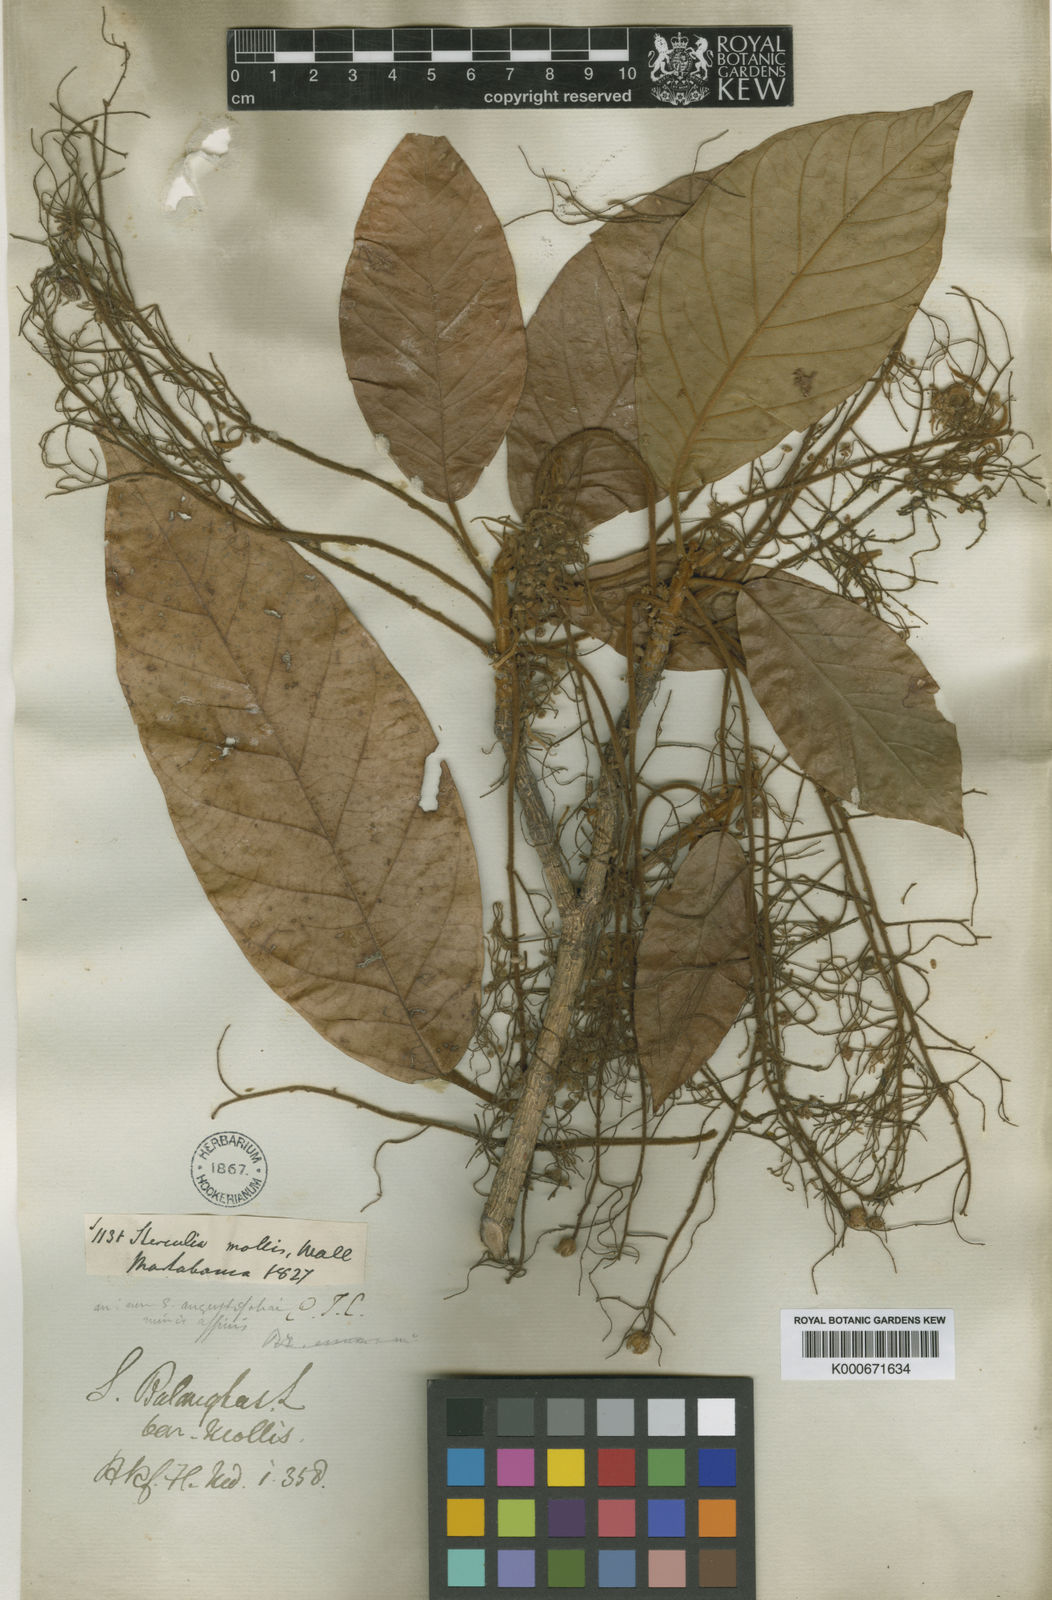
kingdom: Plantae
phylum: Tracheophyta
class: Magnoliopsida
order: Malvales
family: Malvaceae
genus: Sterculia
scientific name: Sterculia balanghas
